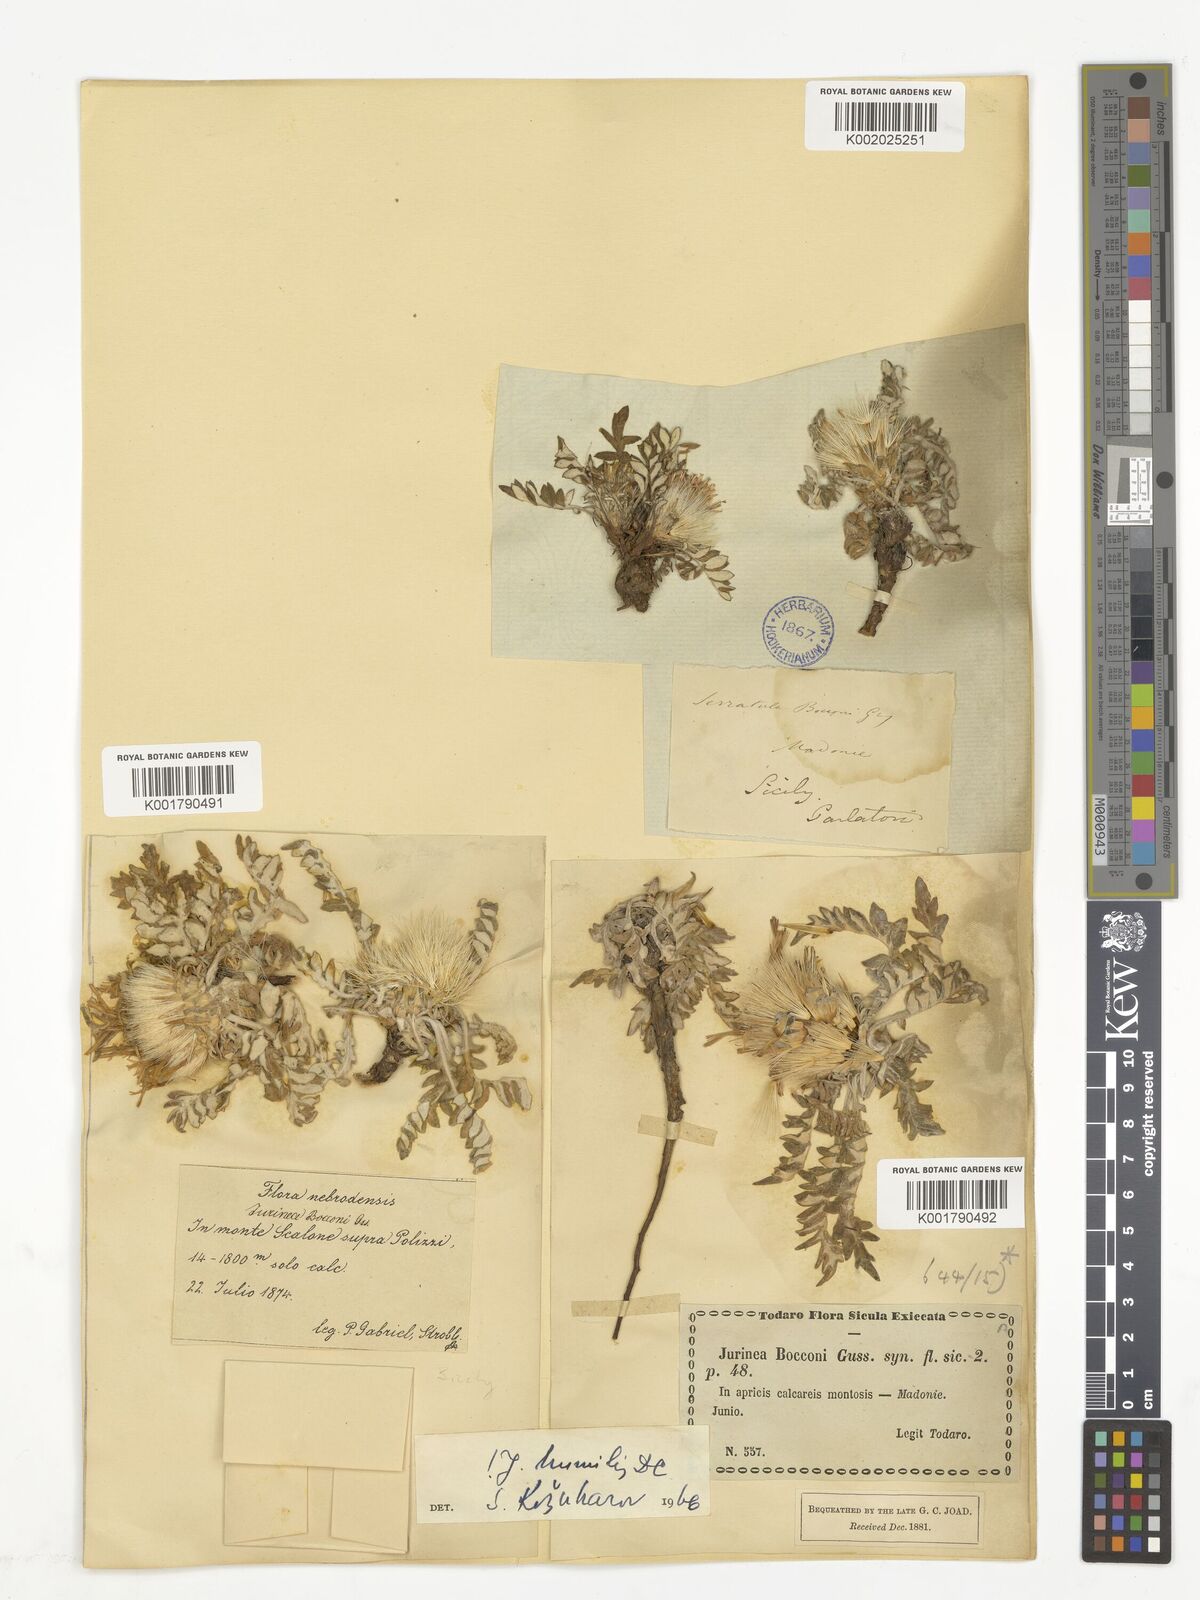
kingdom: Plantae
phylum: Tracheophyta
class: Magnoliopsida
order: Asterales
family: Asteraceae
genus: Jurinea
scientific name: Jurinea humilis
